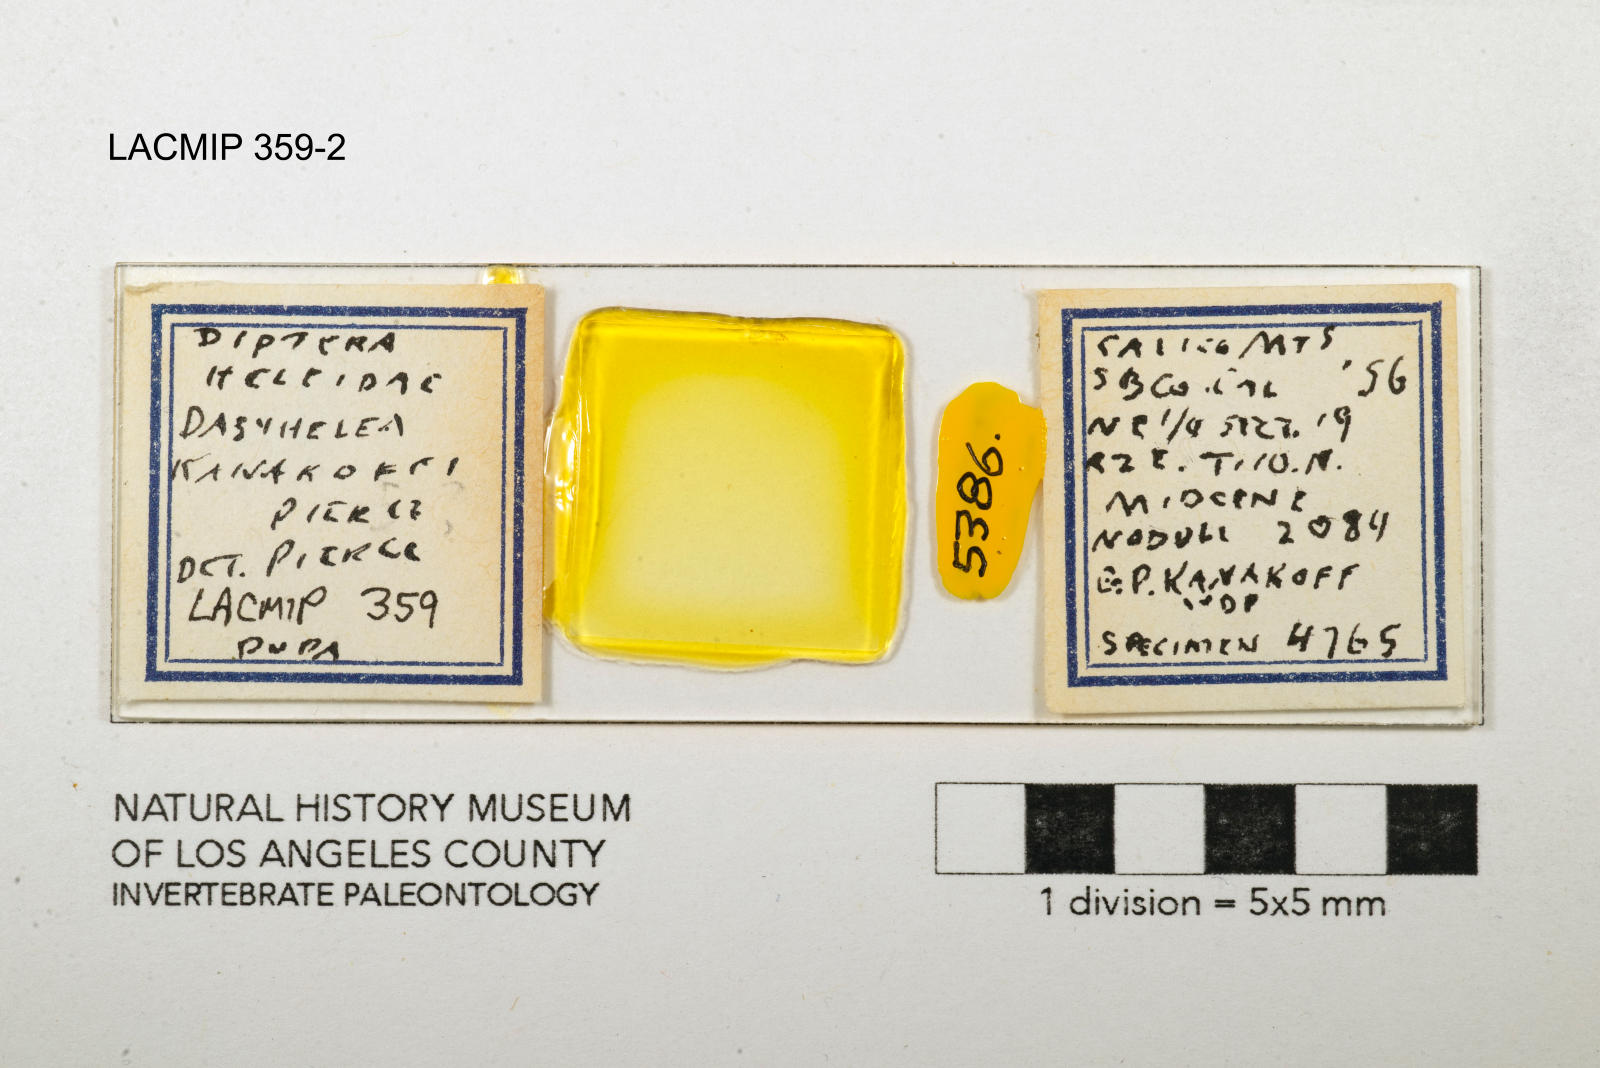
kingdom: Animalia
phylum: Arthropoda
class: Insecta
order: Diptera
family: Ceratopogonidae
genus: Dasyhelea
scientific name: Dasyhelea kanakoffi
